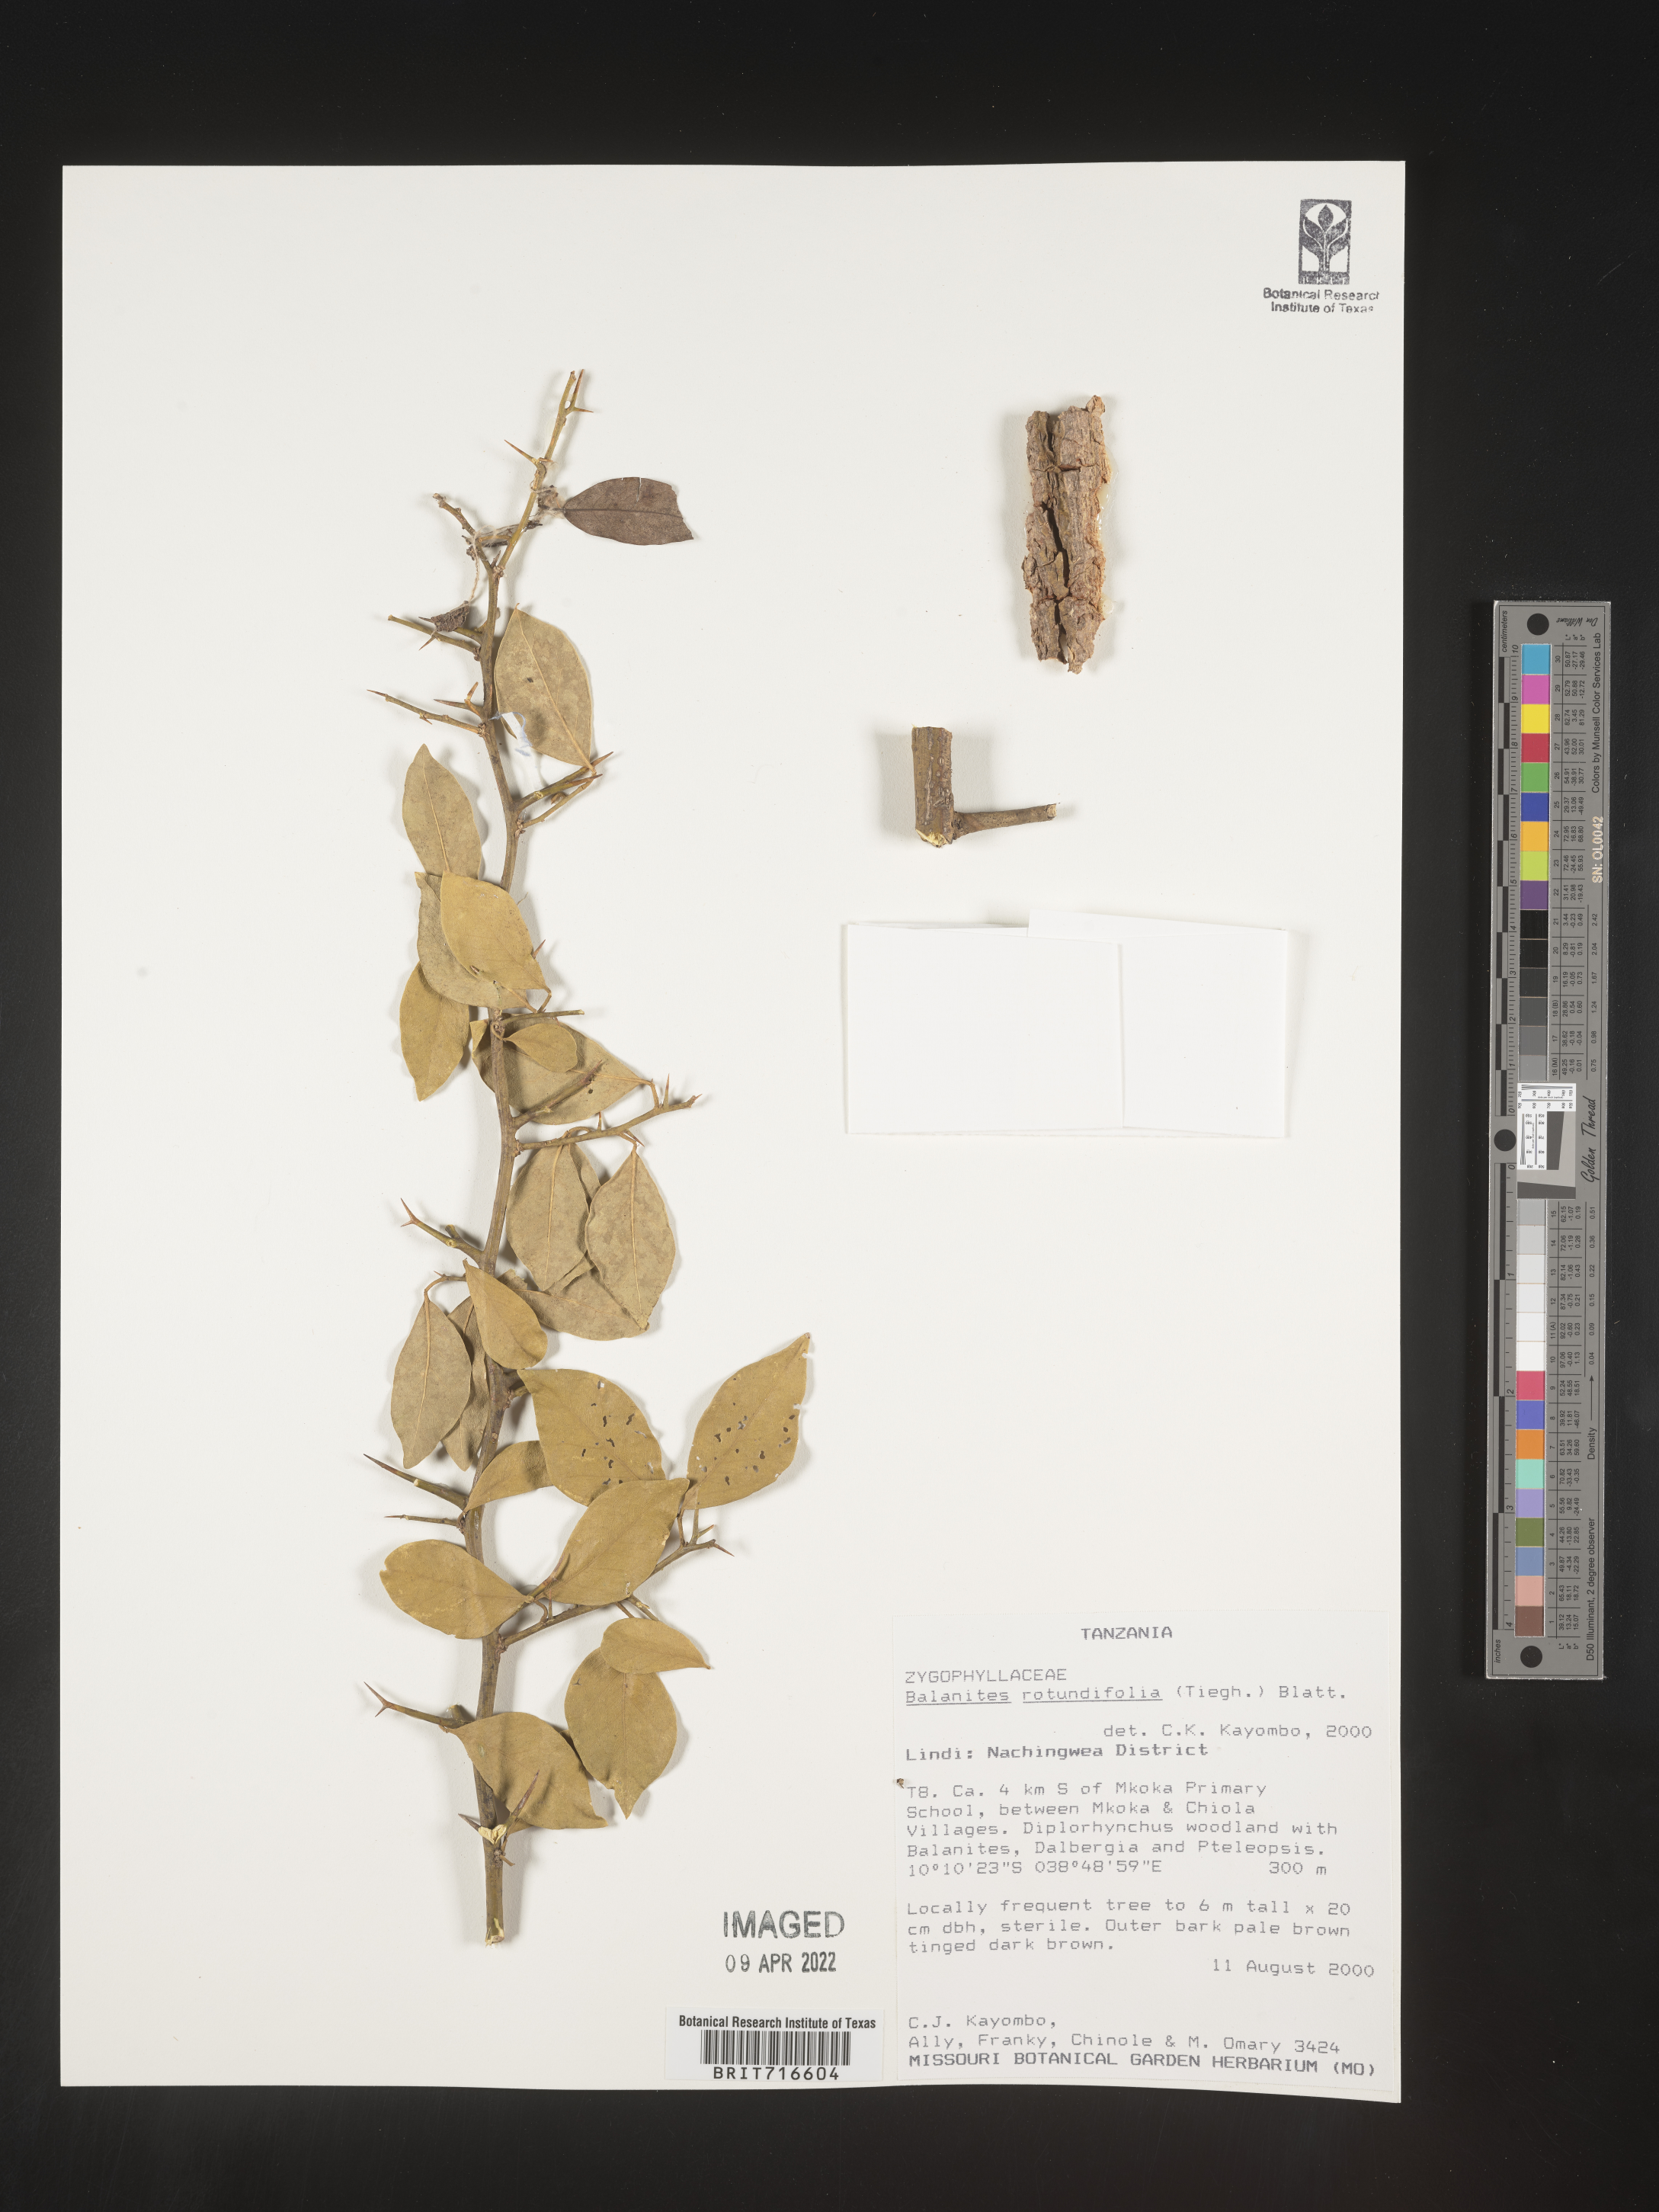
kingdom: Plantae
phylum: Tracheophyta
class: Magnoliopsida
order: Zygophyllales
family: Zygophyllaceae
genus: Balanites
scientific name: Balanites
